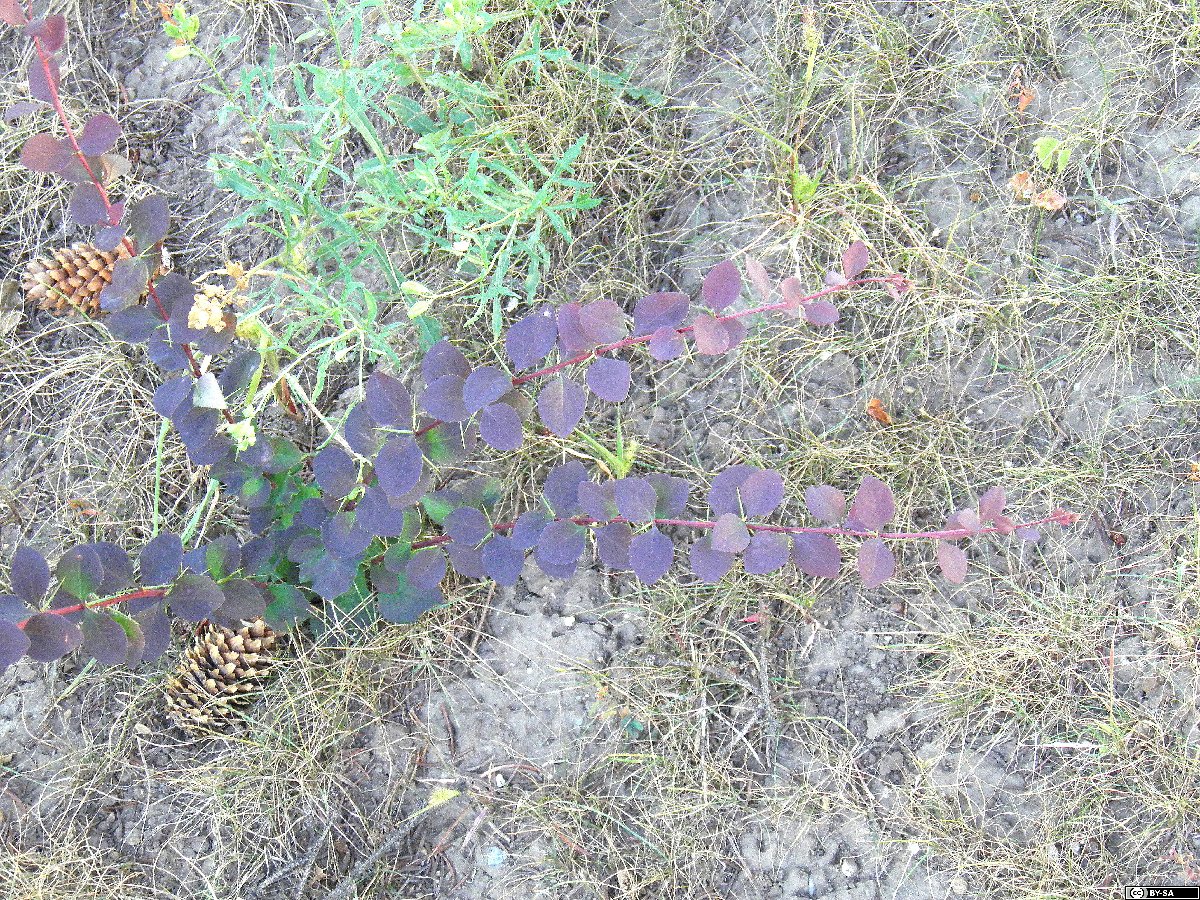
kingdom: Plantae
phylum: Tracheophyta
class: Magnoliopsida
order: Ranunculales
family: Berberidaceae
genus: Berberis
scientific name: Berberis ottawensis
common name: Ottawa barberry
